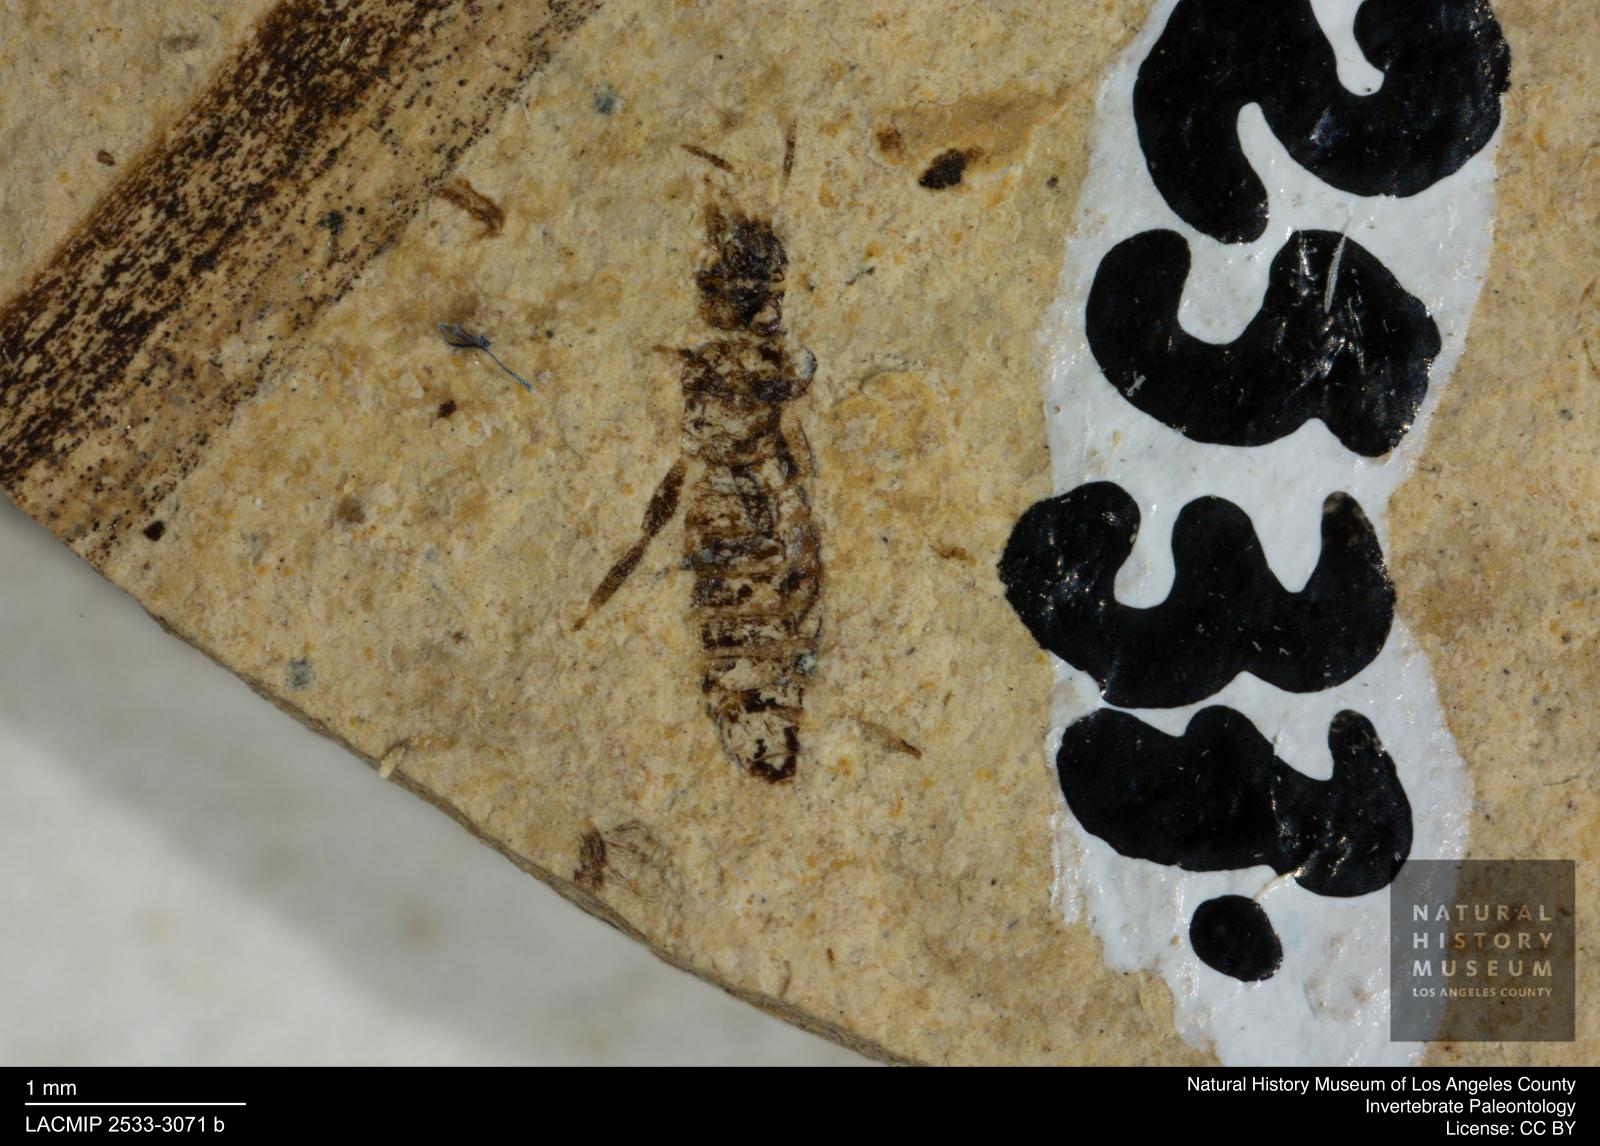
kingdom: Animalia
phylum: Arthropoda
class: Insecta
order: Thysanoptera
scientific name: Thysanoptera
